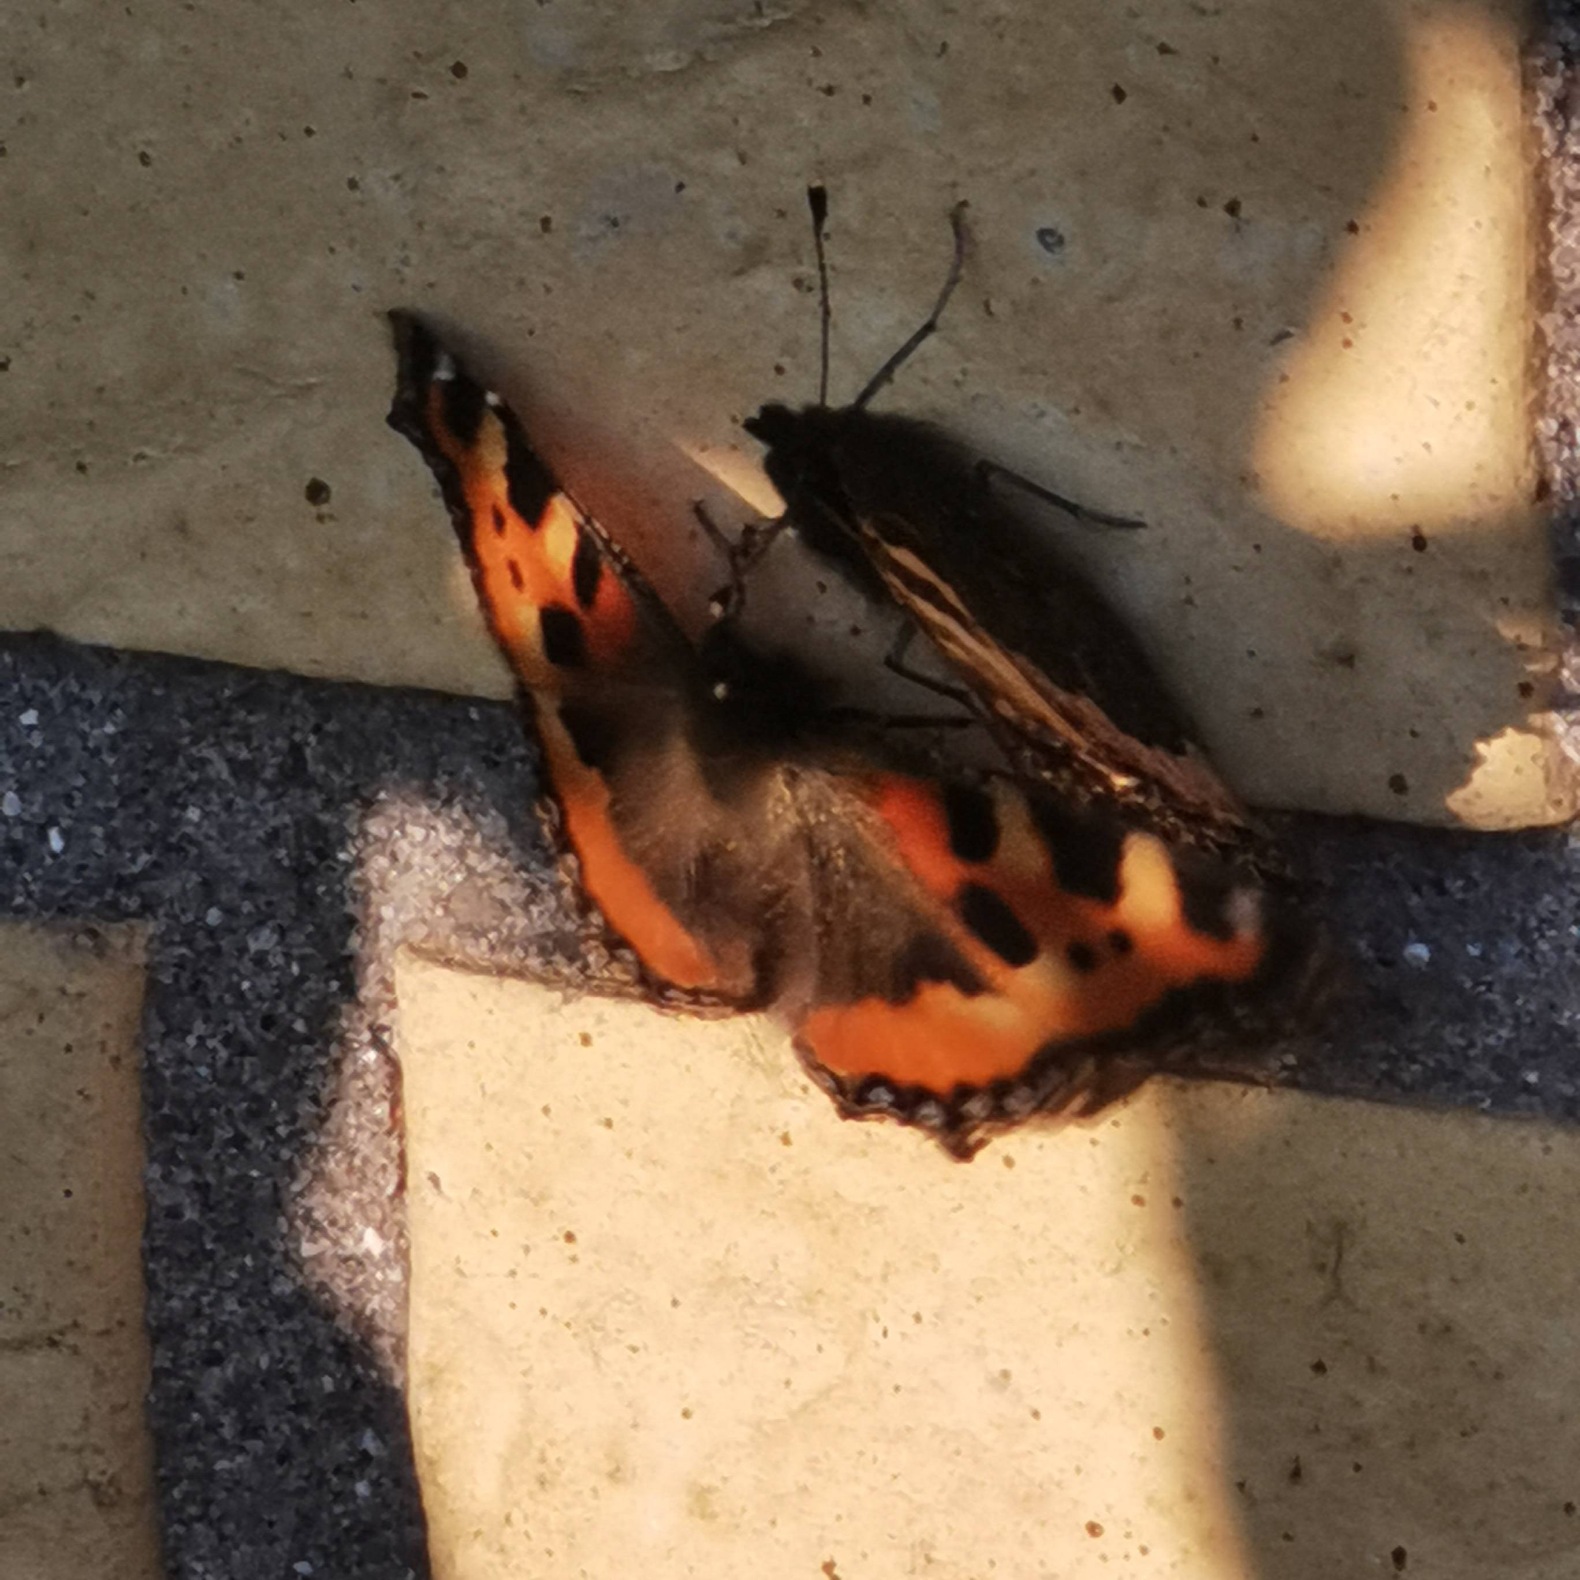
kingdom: Animalia
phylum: Arthropoda
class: Insecta
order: Lepidoptera
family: Nymphalidae
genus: Aglais
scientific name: Aglais urticae
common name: Nældens takvinge
